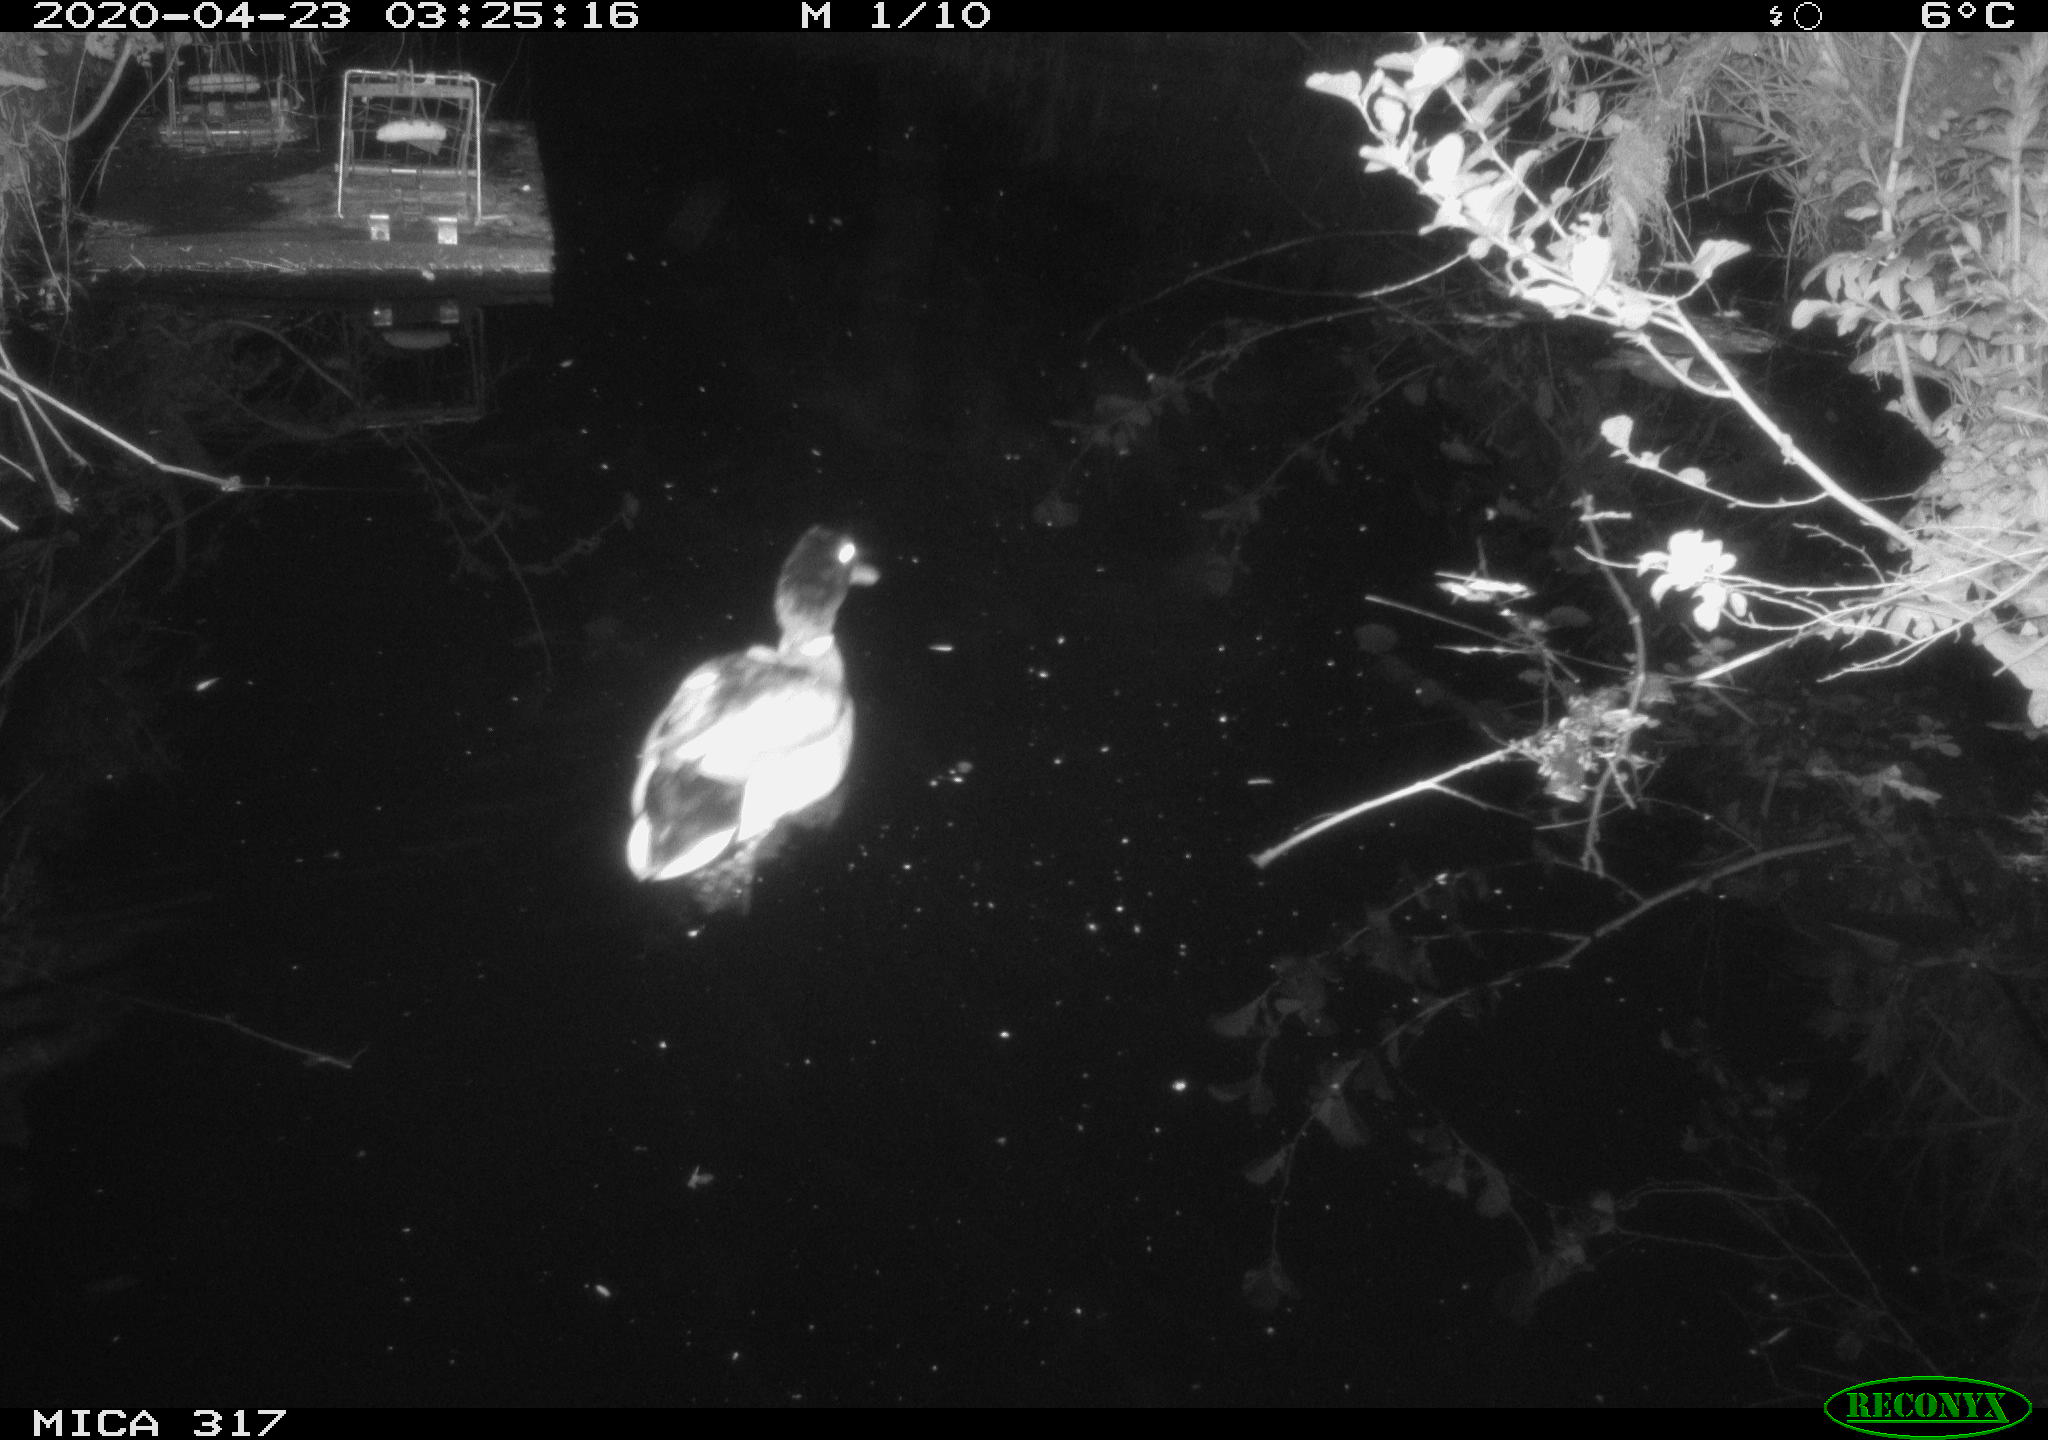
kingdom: Animalia
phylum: Chordata
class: Aves
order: Anseriformes
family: Anatidae
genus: Anas
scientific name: Anas platyrhynchos
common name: Mallard
